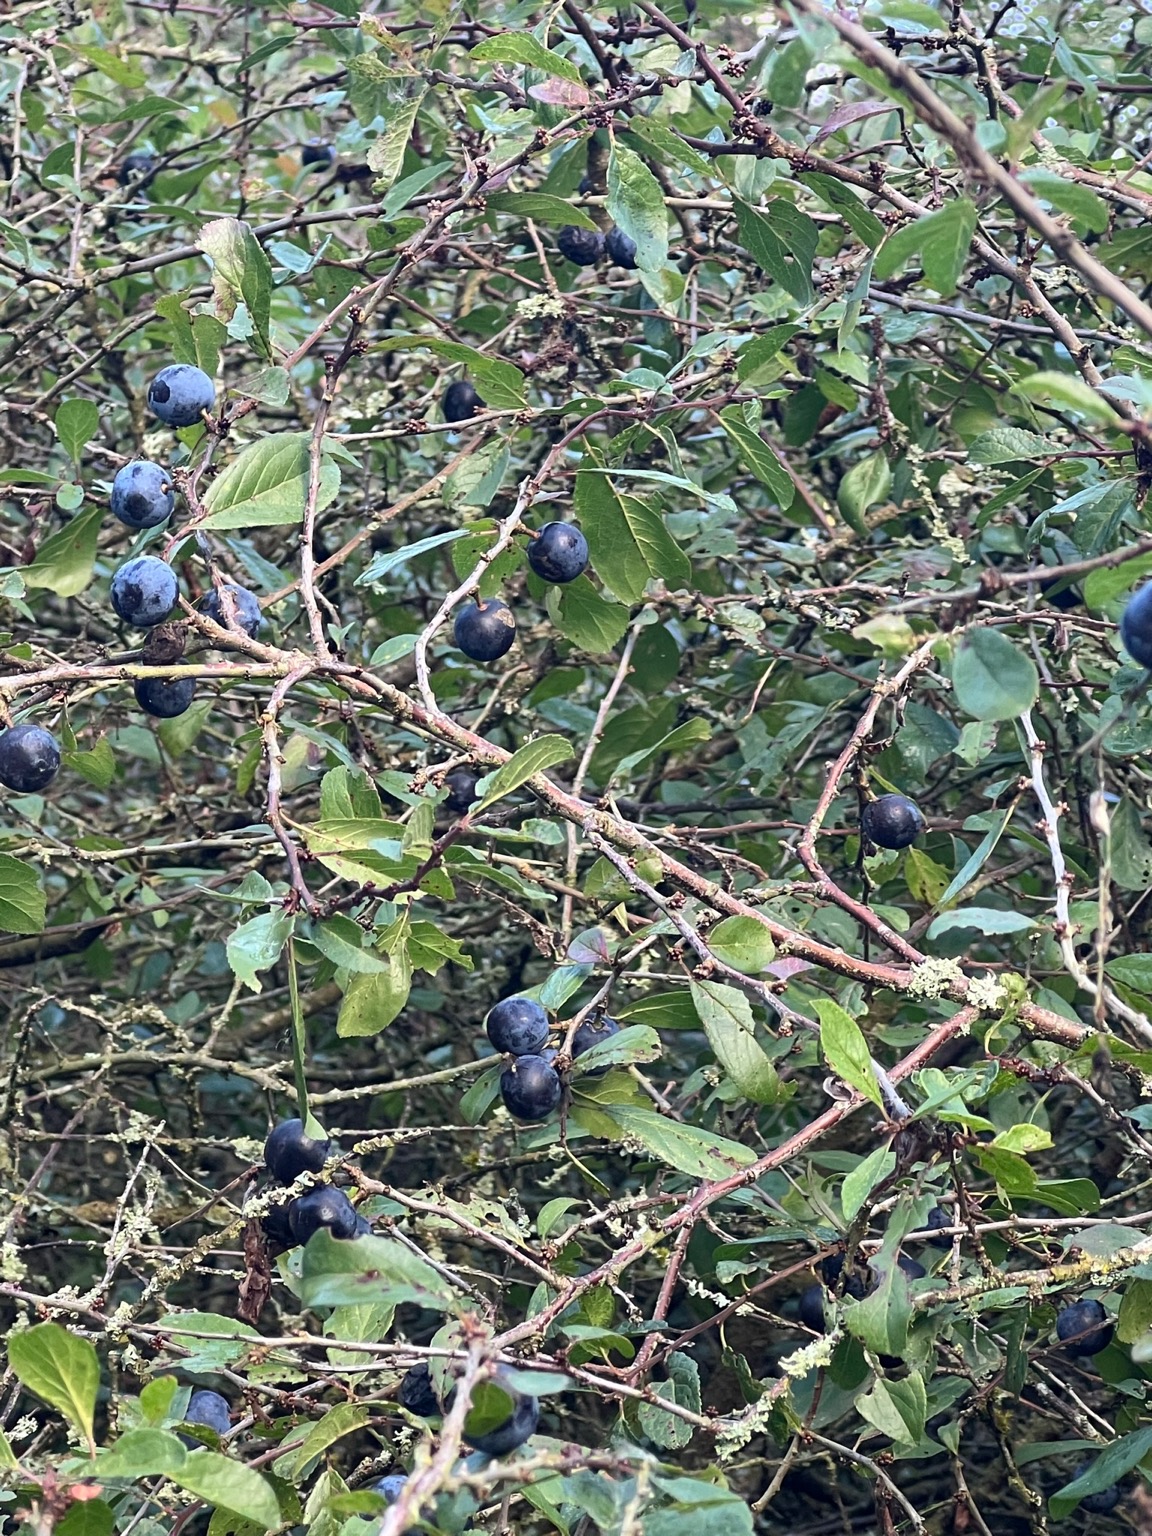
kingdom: Plantae
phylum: Tracheophyta
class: Magnoliopsida
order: Rosales
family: Rosaceae
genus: Prunus
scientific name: Prunus spinosa
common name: Slåen
